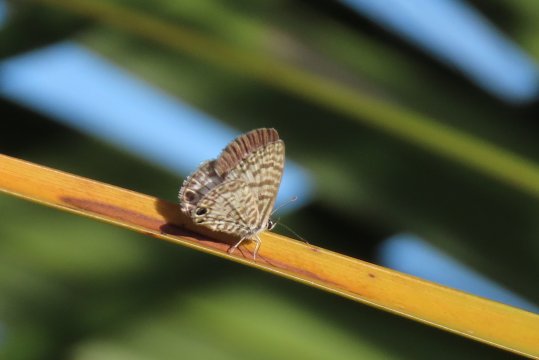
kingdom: Animalia
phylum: Arthropoda
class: Insecta
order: Lepidoptera
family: Lycaenidae
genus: Leptotes
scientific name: Leptotes cassius
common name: Cassius Blue
